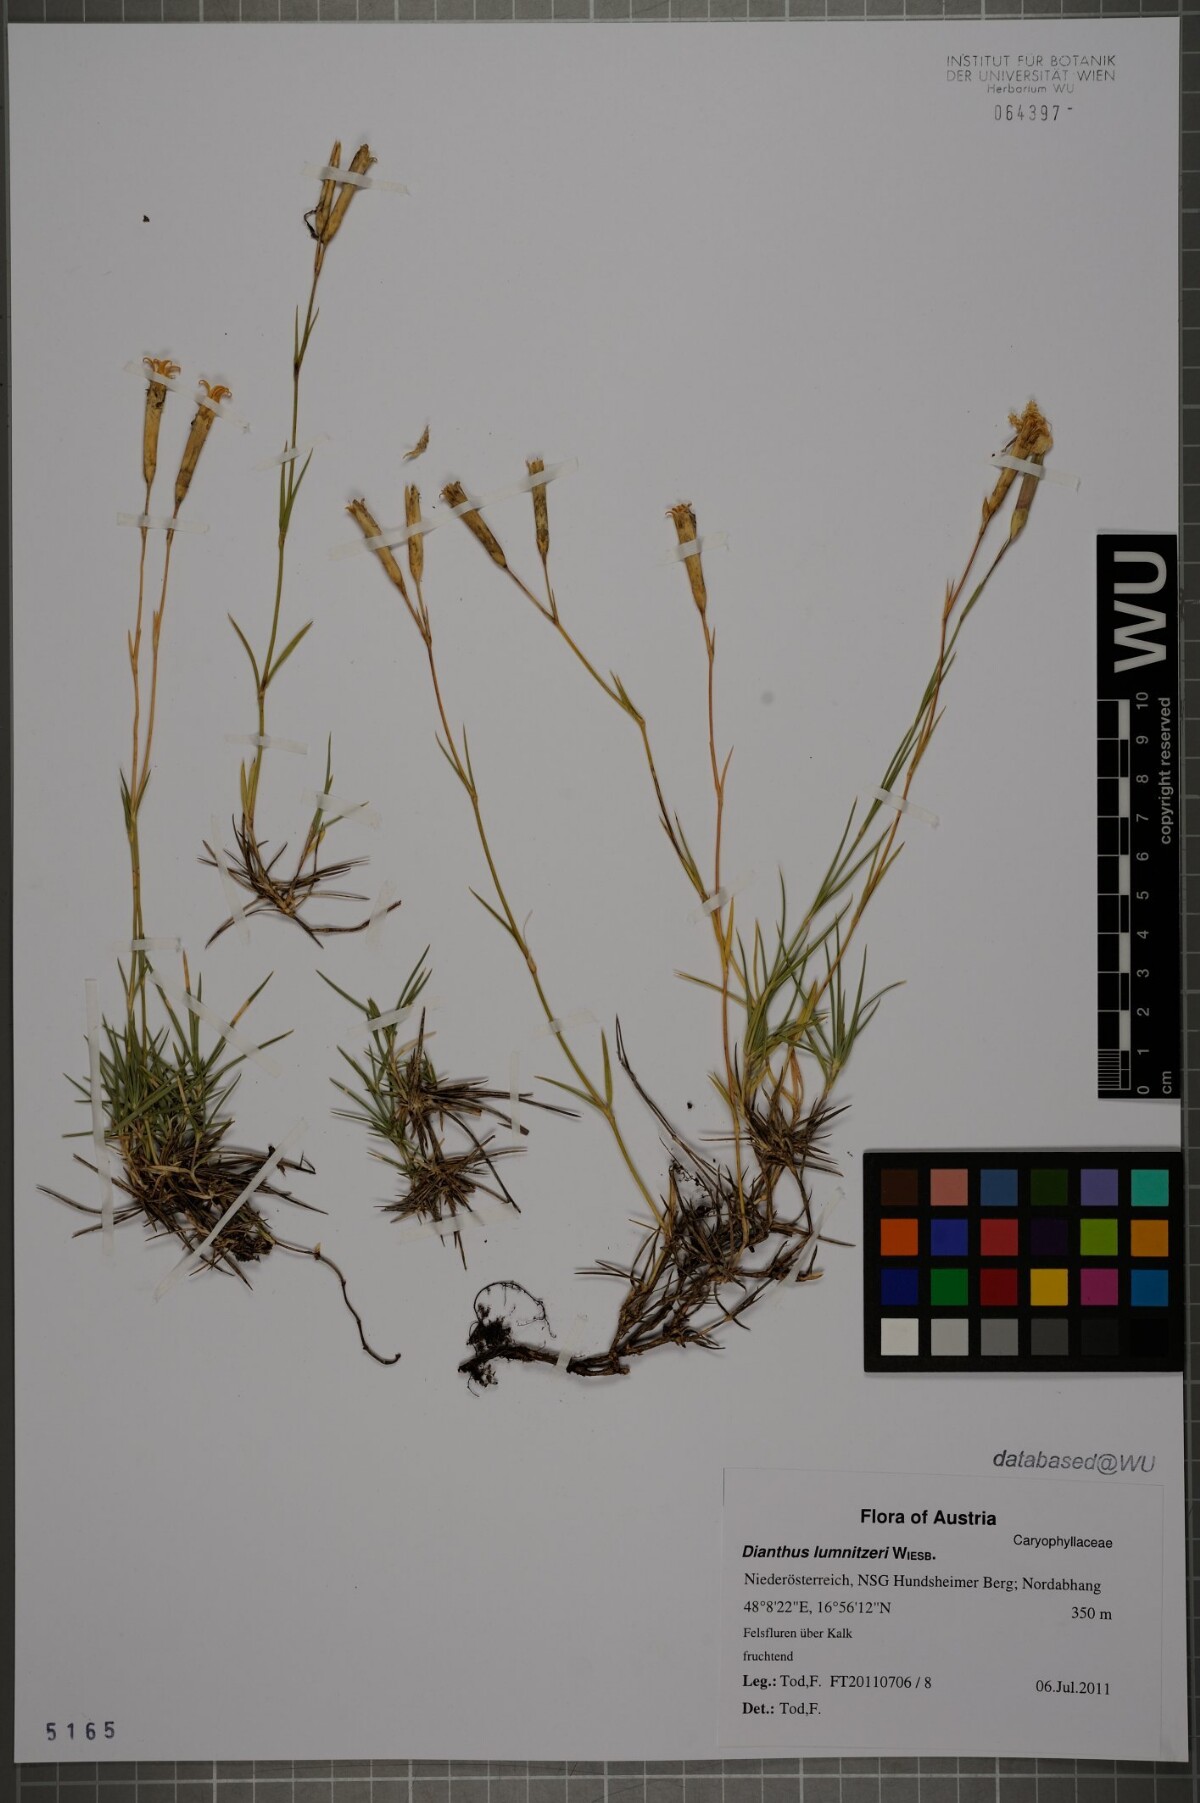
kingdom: Plantae
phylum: Tracheophyta
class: Magnoliopsida
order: Caryophyllales
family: Caryophyllaceae
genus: Dianthus
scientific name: Dianthus praecox
